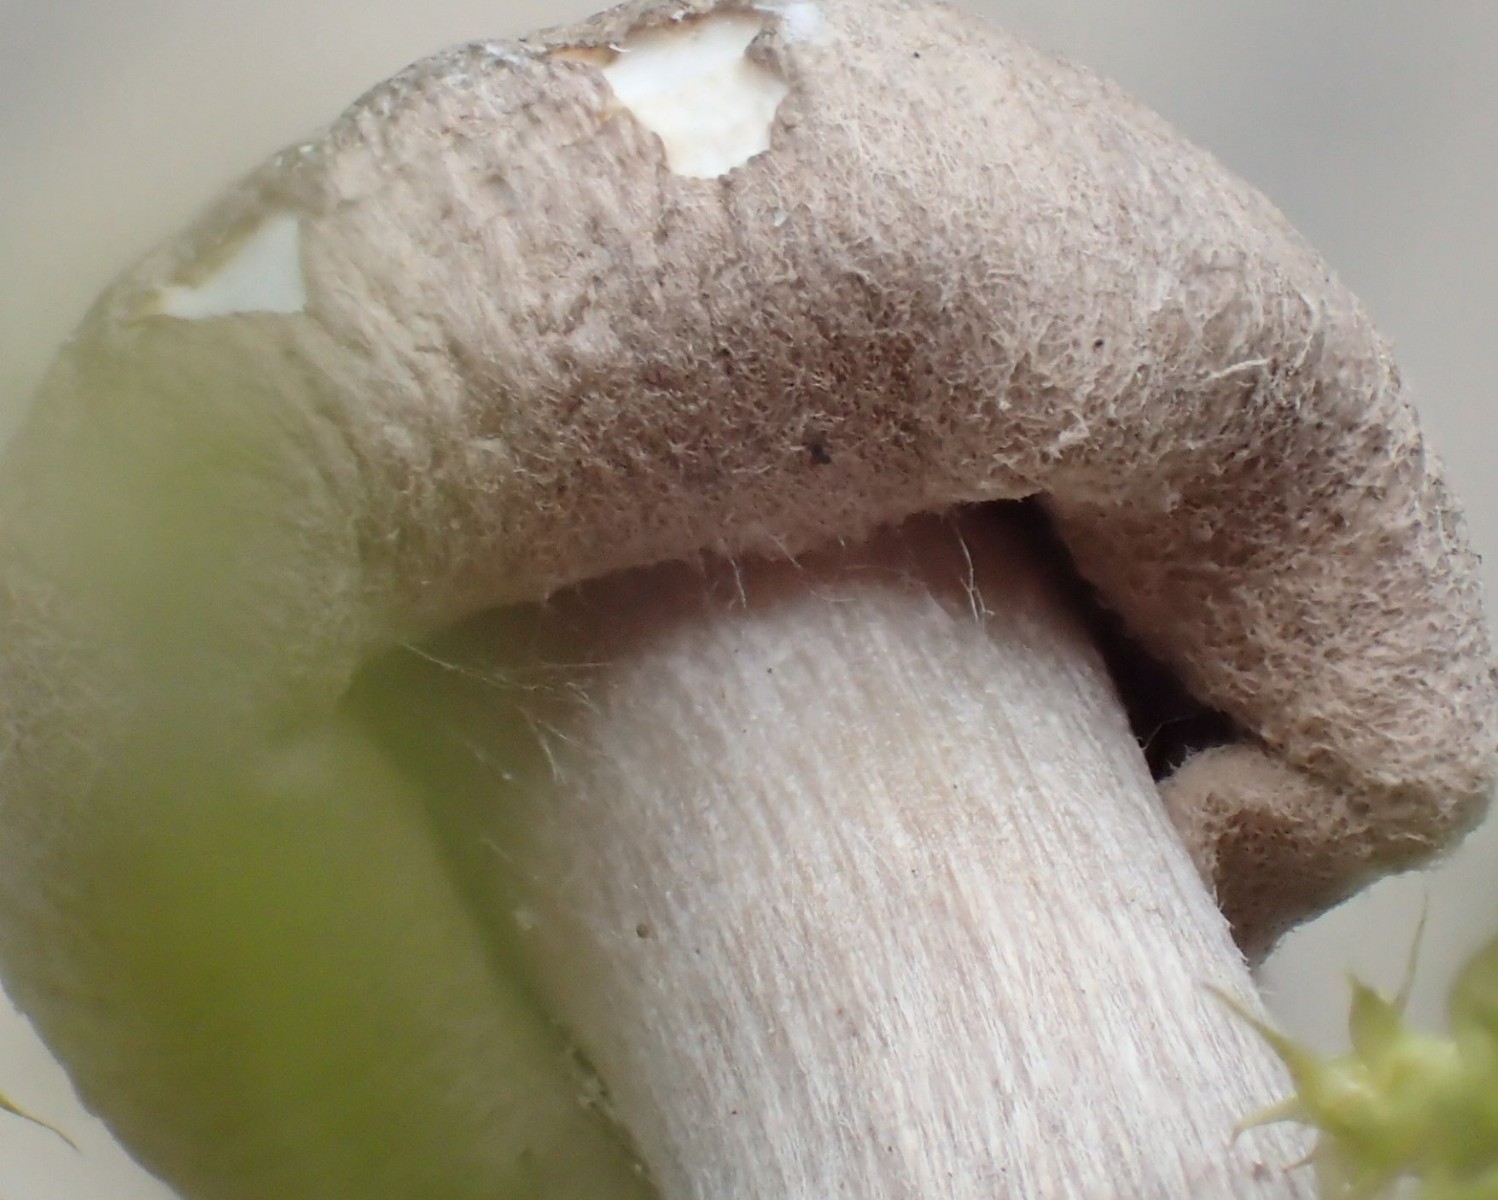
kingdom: Fungi
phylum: Basidiomycota
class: Agaricomycetes
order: Agaricales
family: Tricholomataceae
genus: Tricholoma
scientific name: Tricholoma argyraceum
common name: slør-ridderhat
